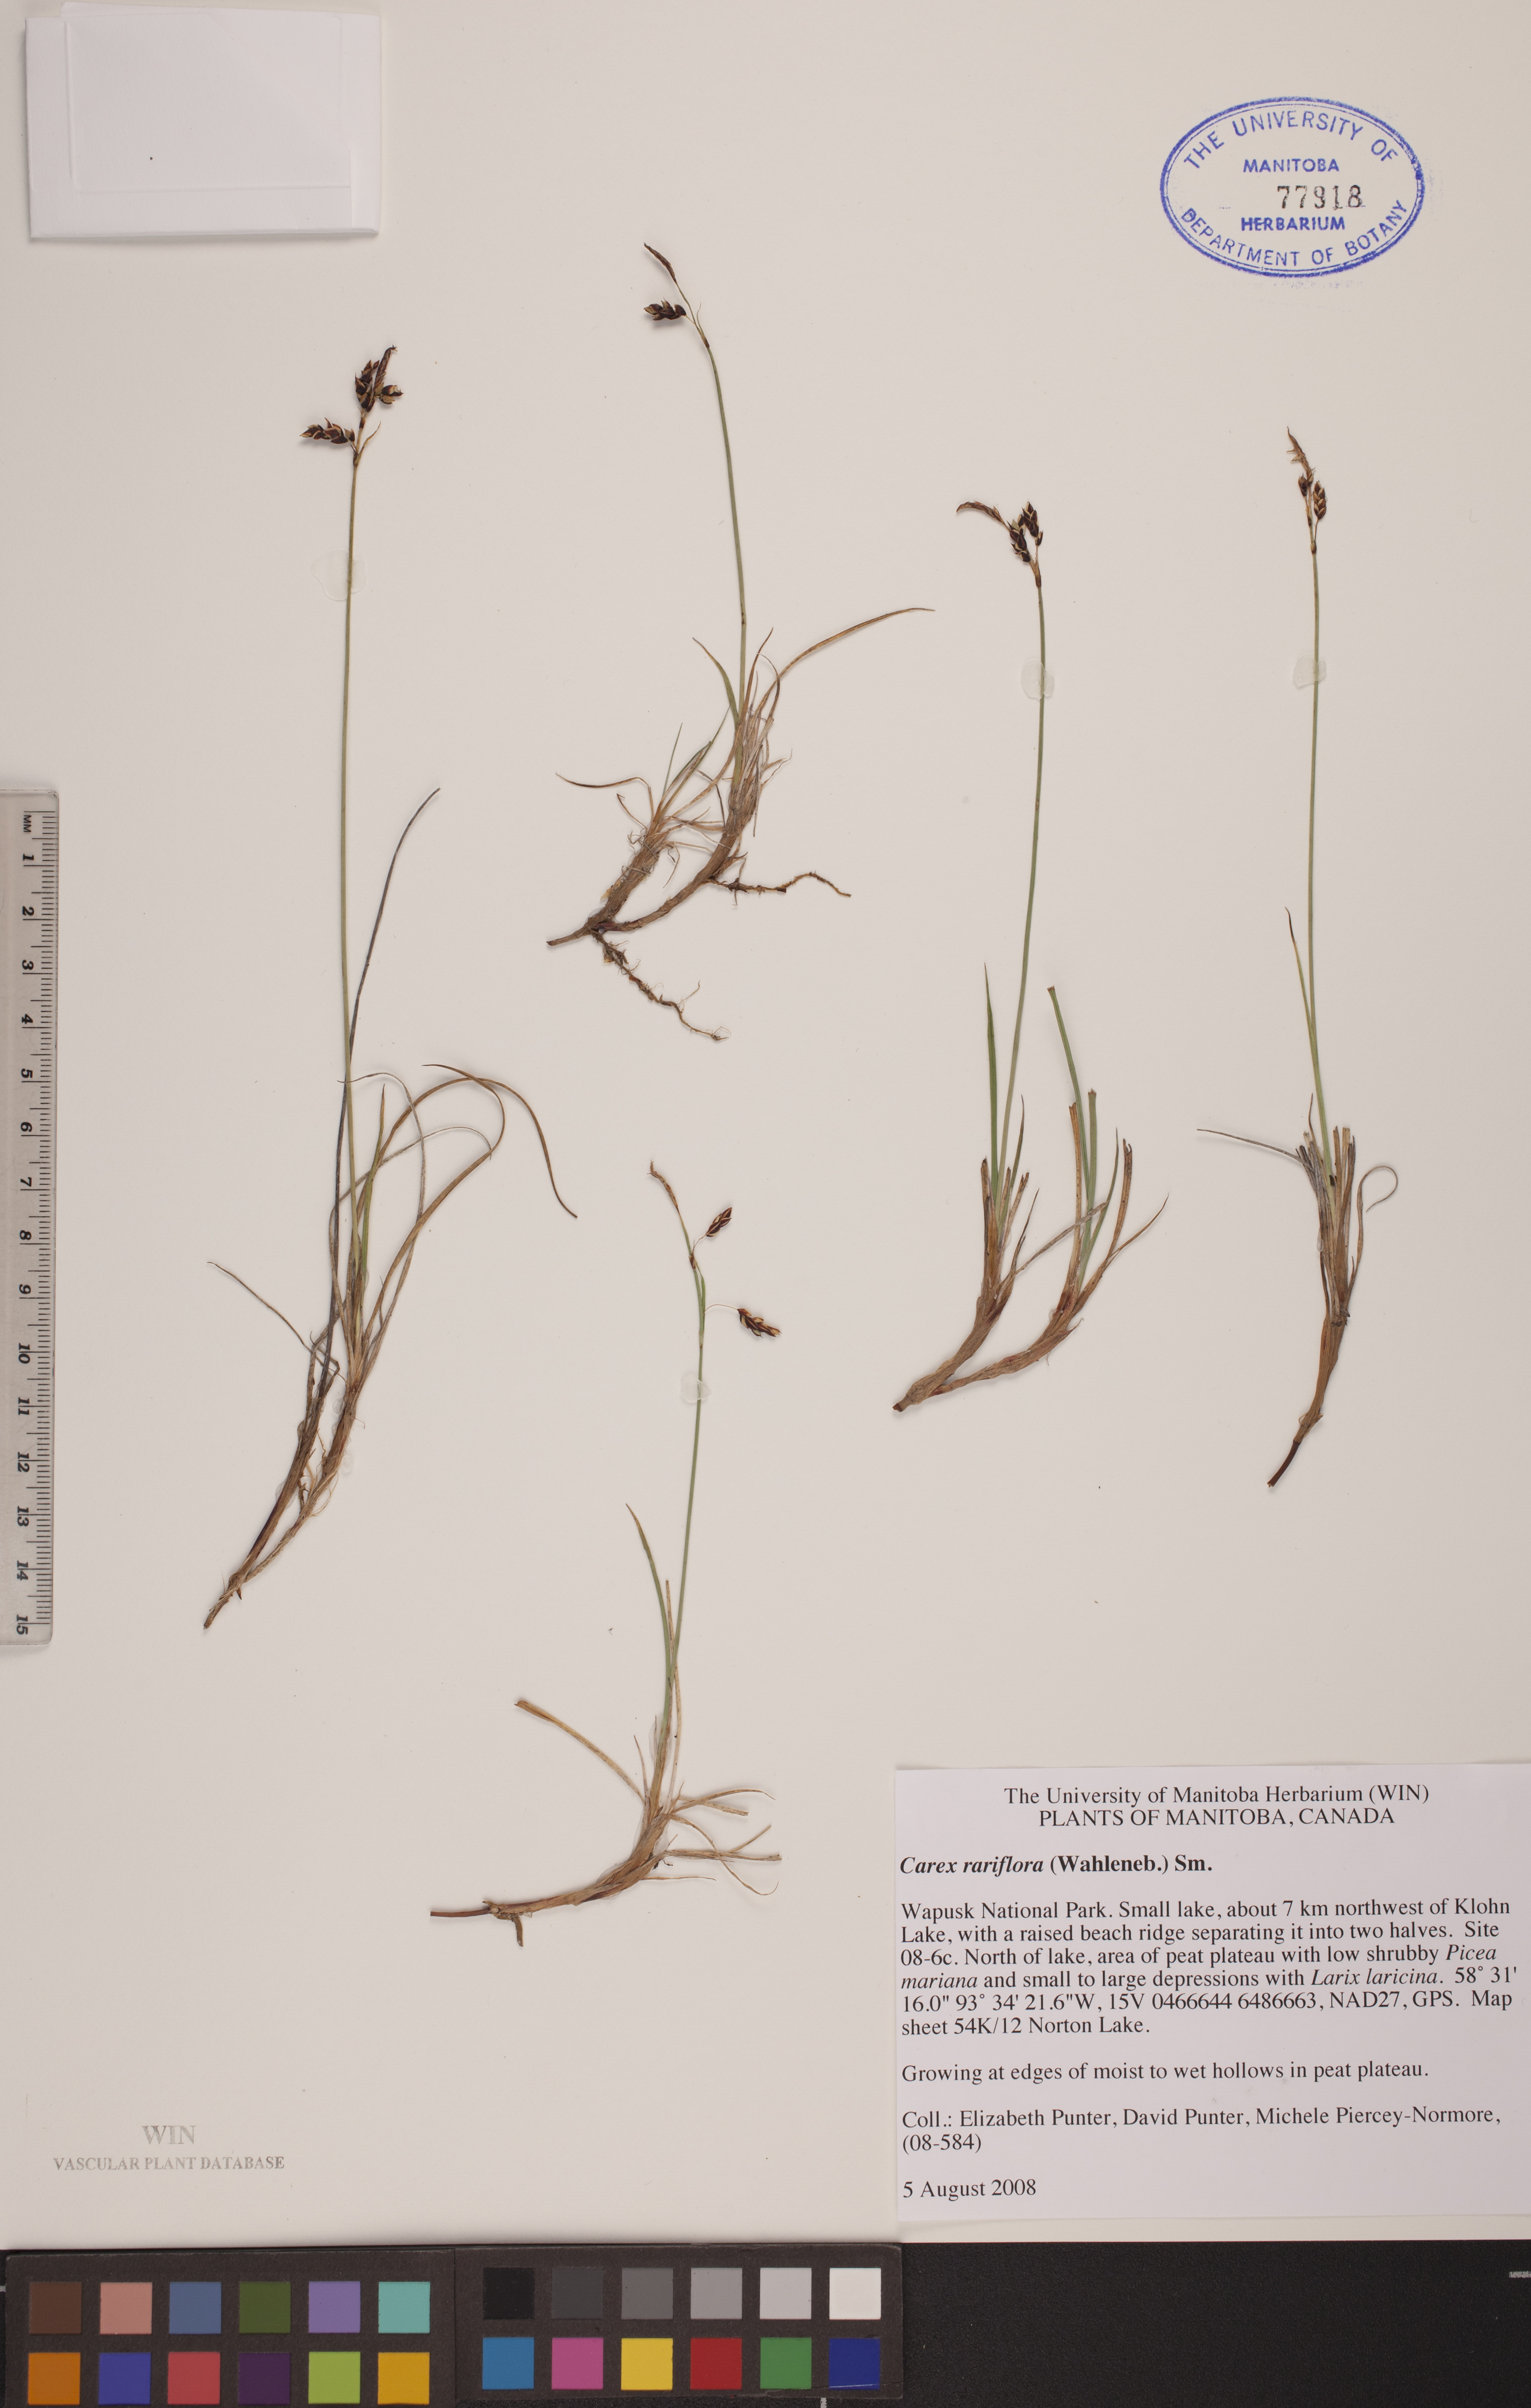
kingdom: Plantae
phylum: Tracheophyta
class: Liliopsida
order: Poales
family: Cyperaceae
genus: Carex
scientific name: Carex rariflora
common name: Loose-flowered alpine sedge
